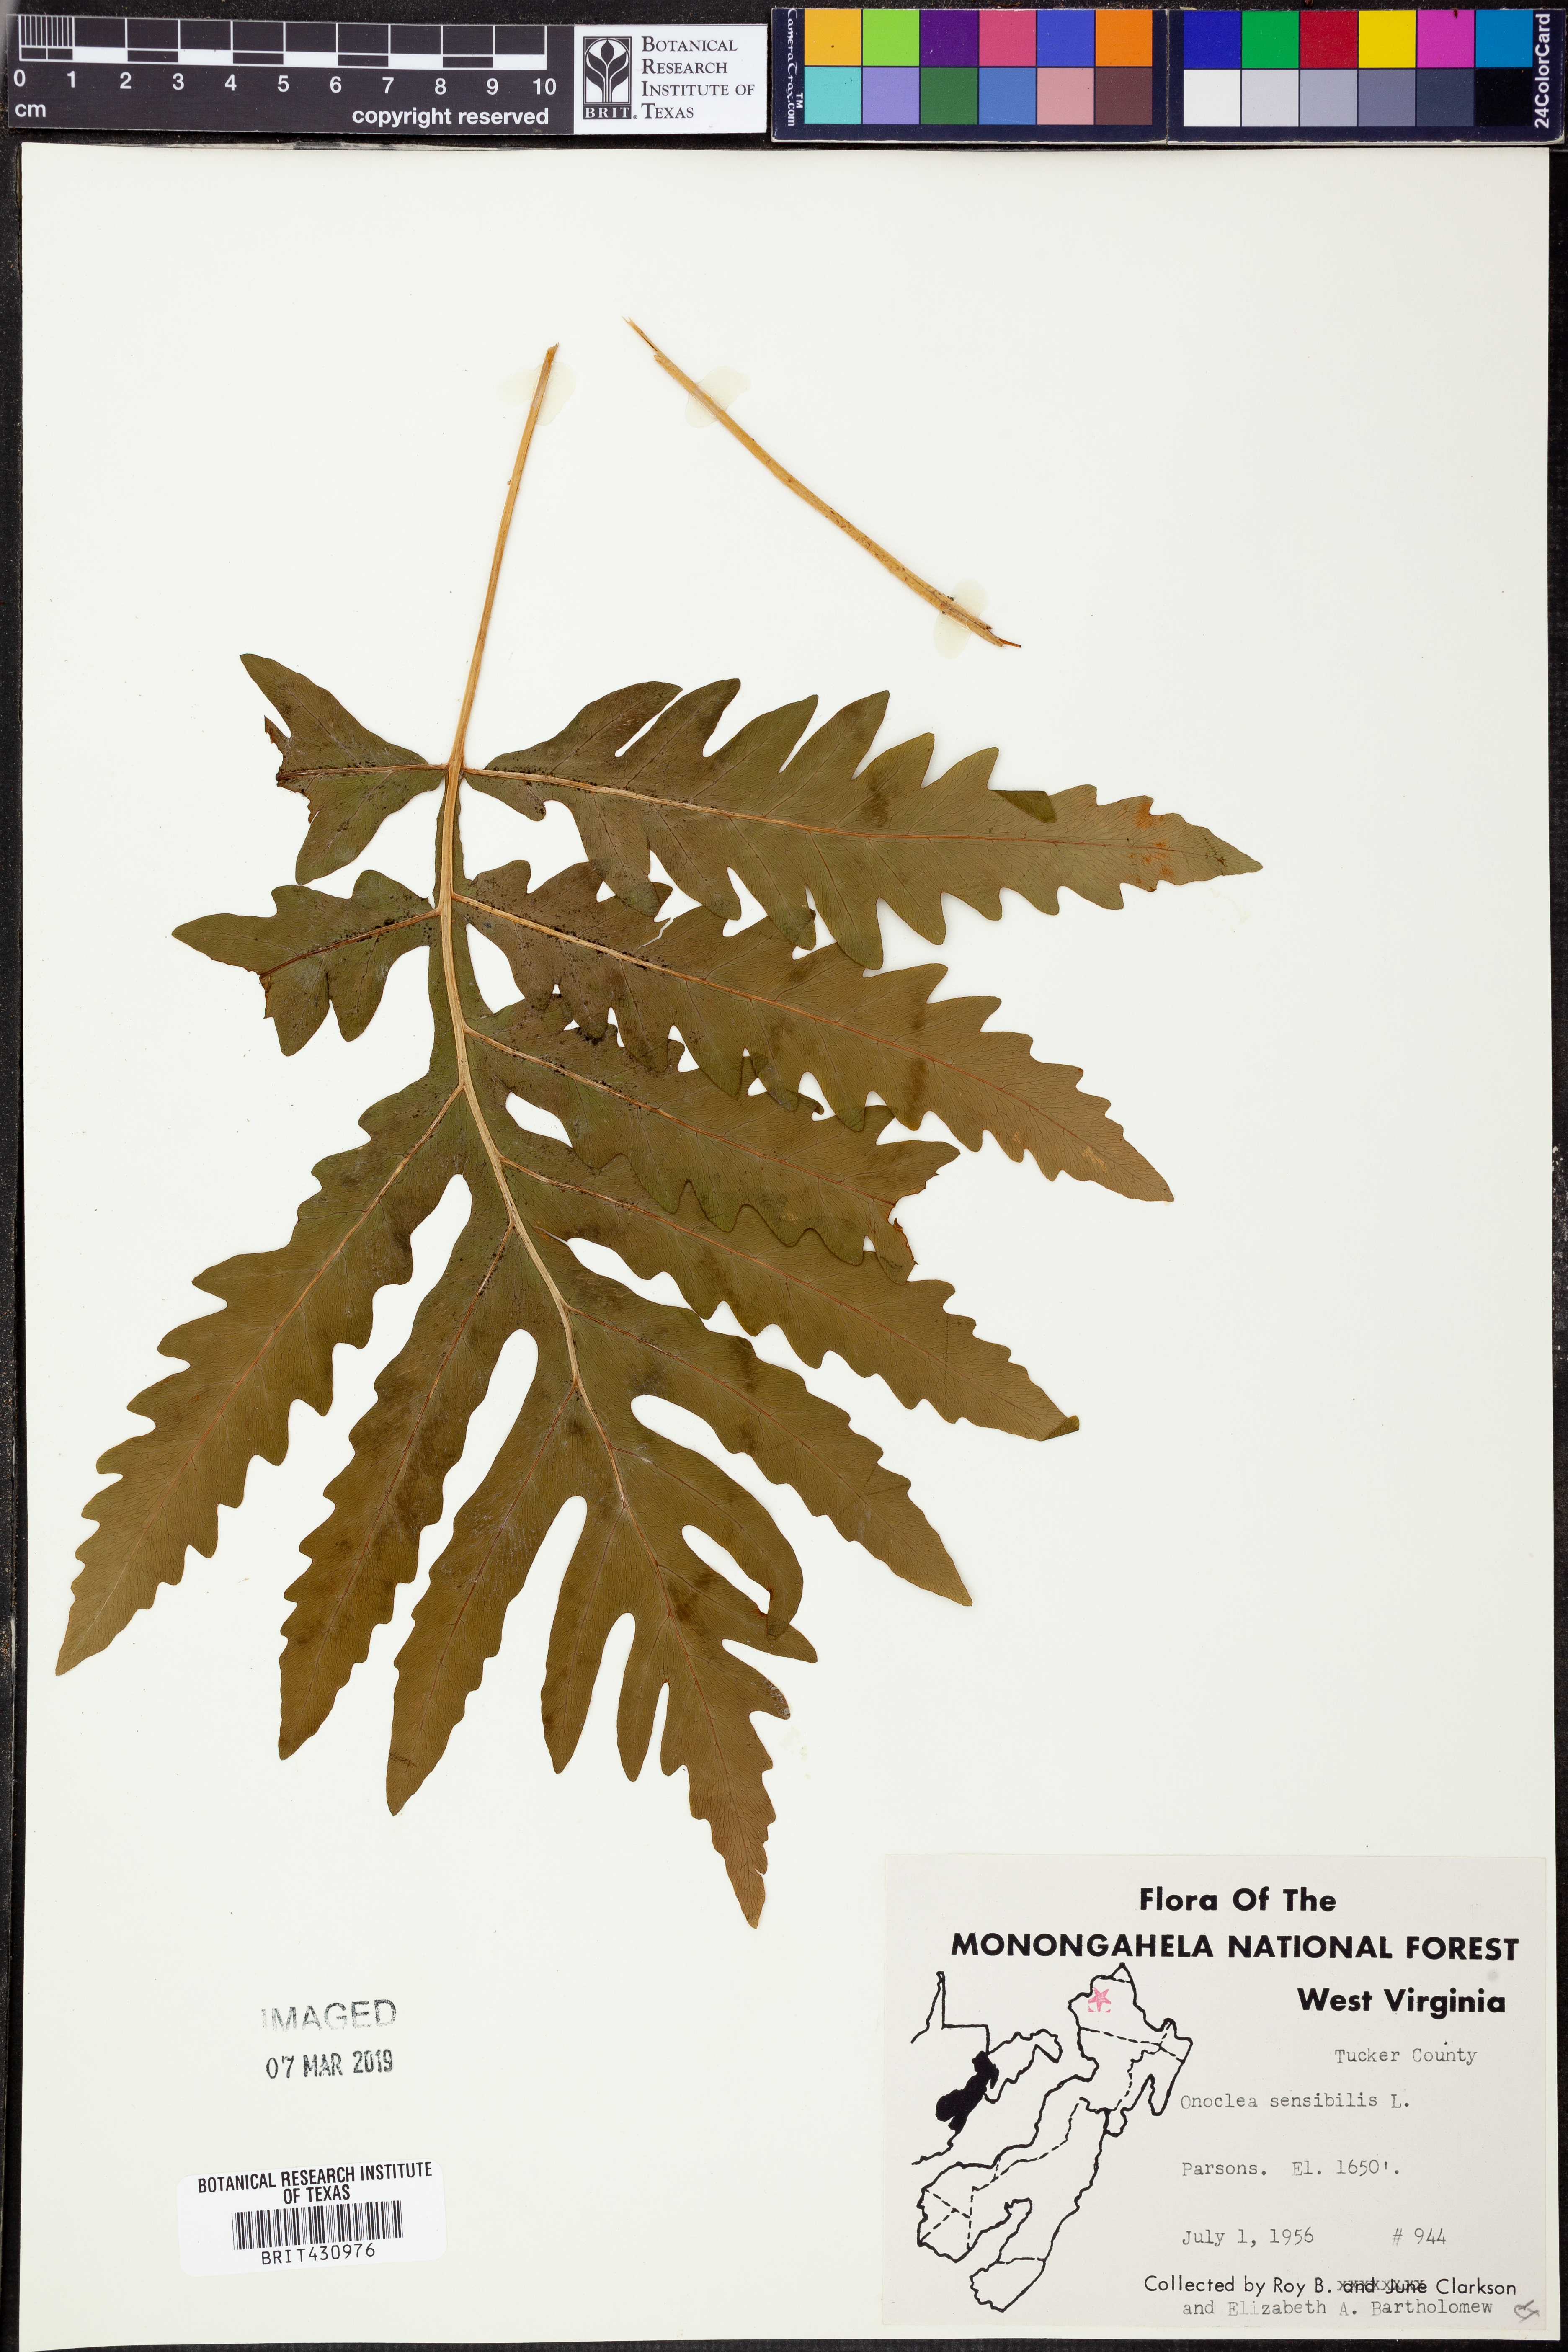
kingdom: Plantae
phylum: Tracheophyta
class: Polypodiopsida
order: Polypodiales
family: Onocleaceae
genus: Onoclea
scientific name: Onoclea sensibilis
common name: Sensitive fern
